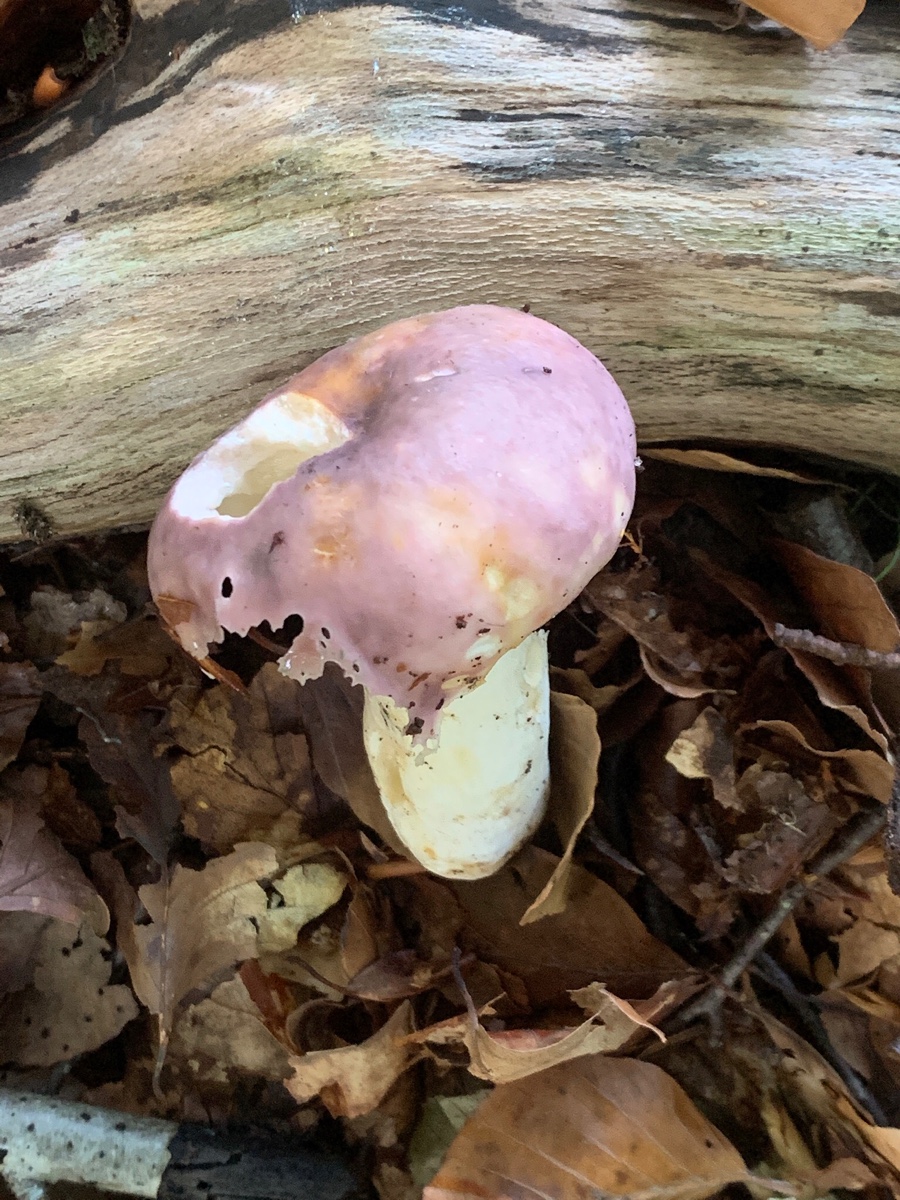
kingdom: Fungi
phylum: Basidiomycota
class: Agaricomycetes
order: Russulales
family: Russulaceae
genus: Russula
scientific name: Russula cyanoxantha
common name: broget skørhat
